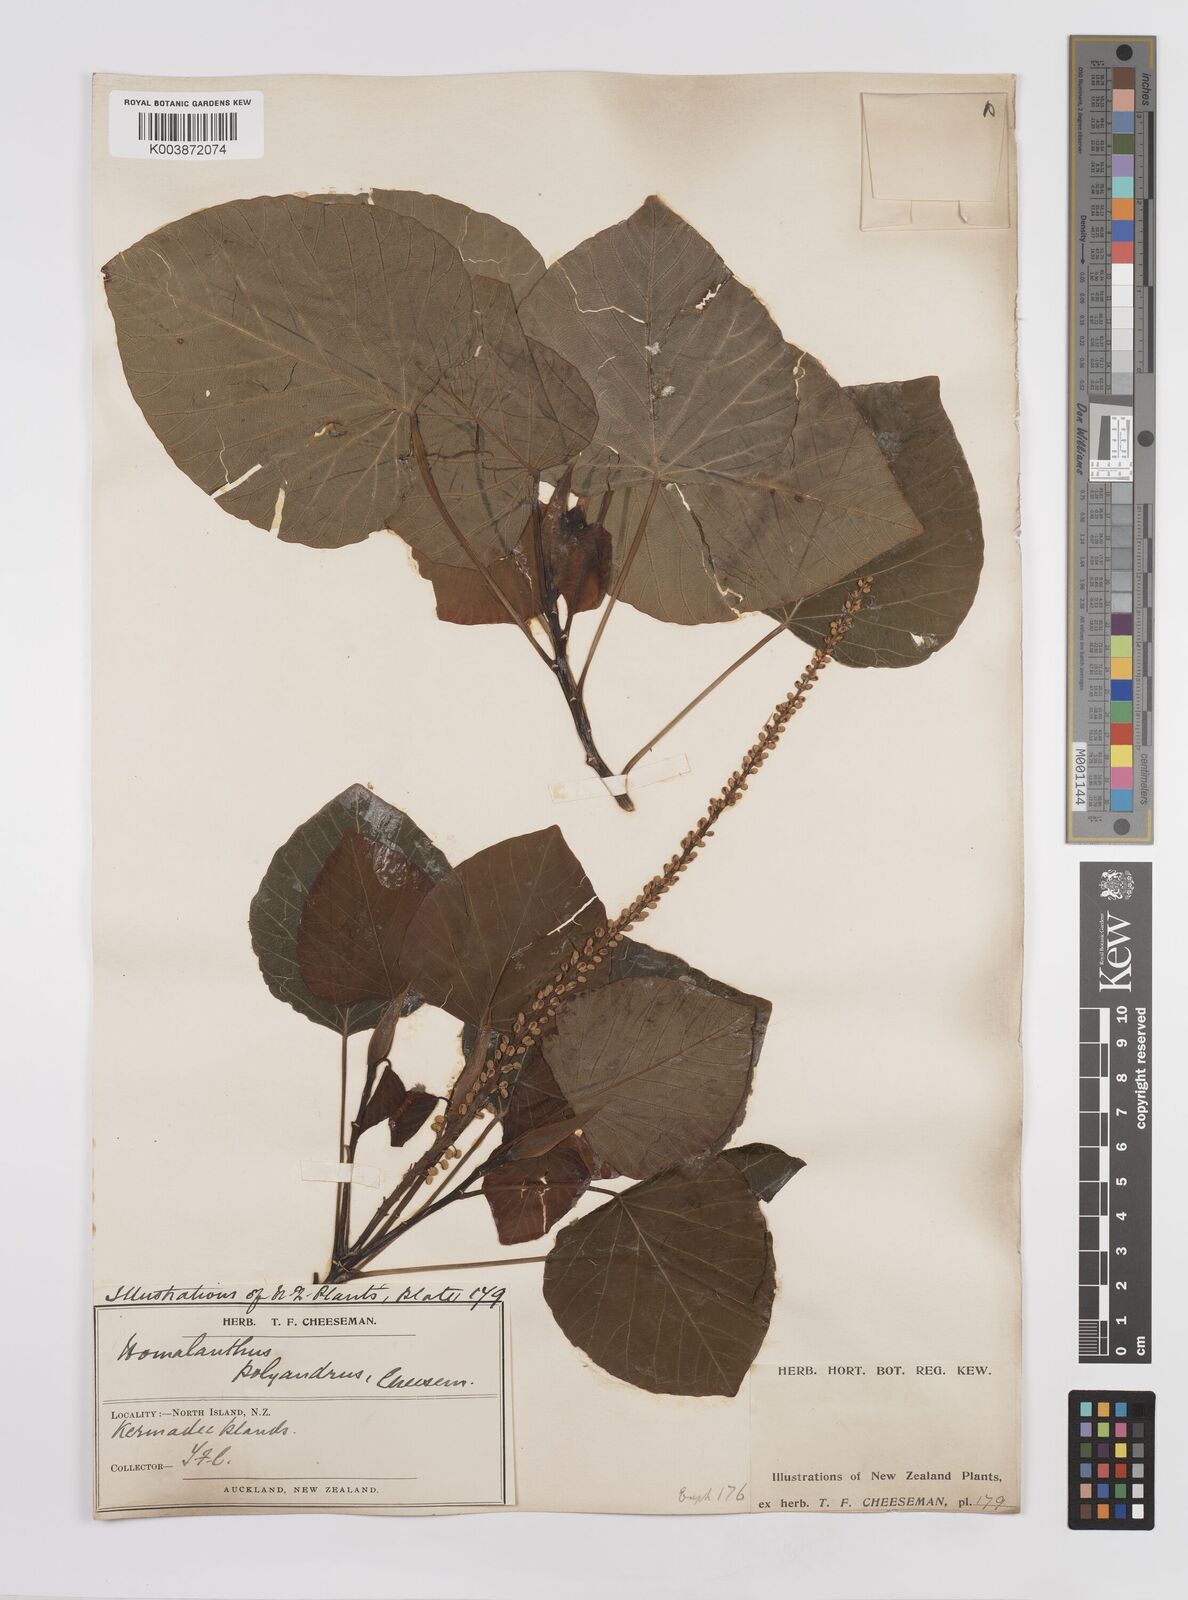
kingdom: Plantae
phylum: Tracheophyta
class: Magnoliopsida
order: Malpighiales
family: Euphorbiaceae
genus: Homalanthus
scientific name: Homalanthus polyandrus
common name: Kermadec poplar
